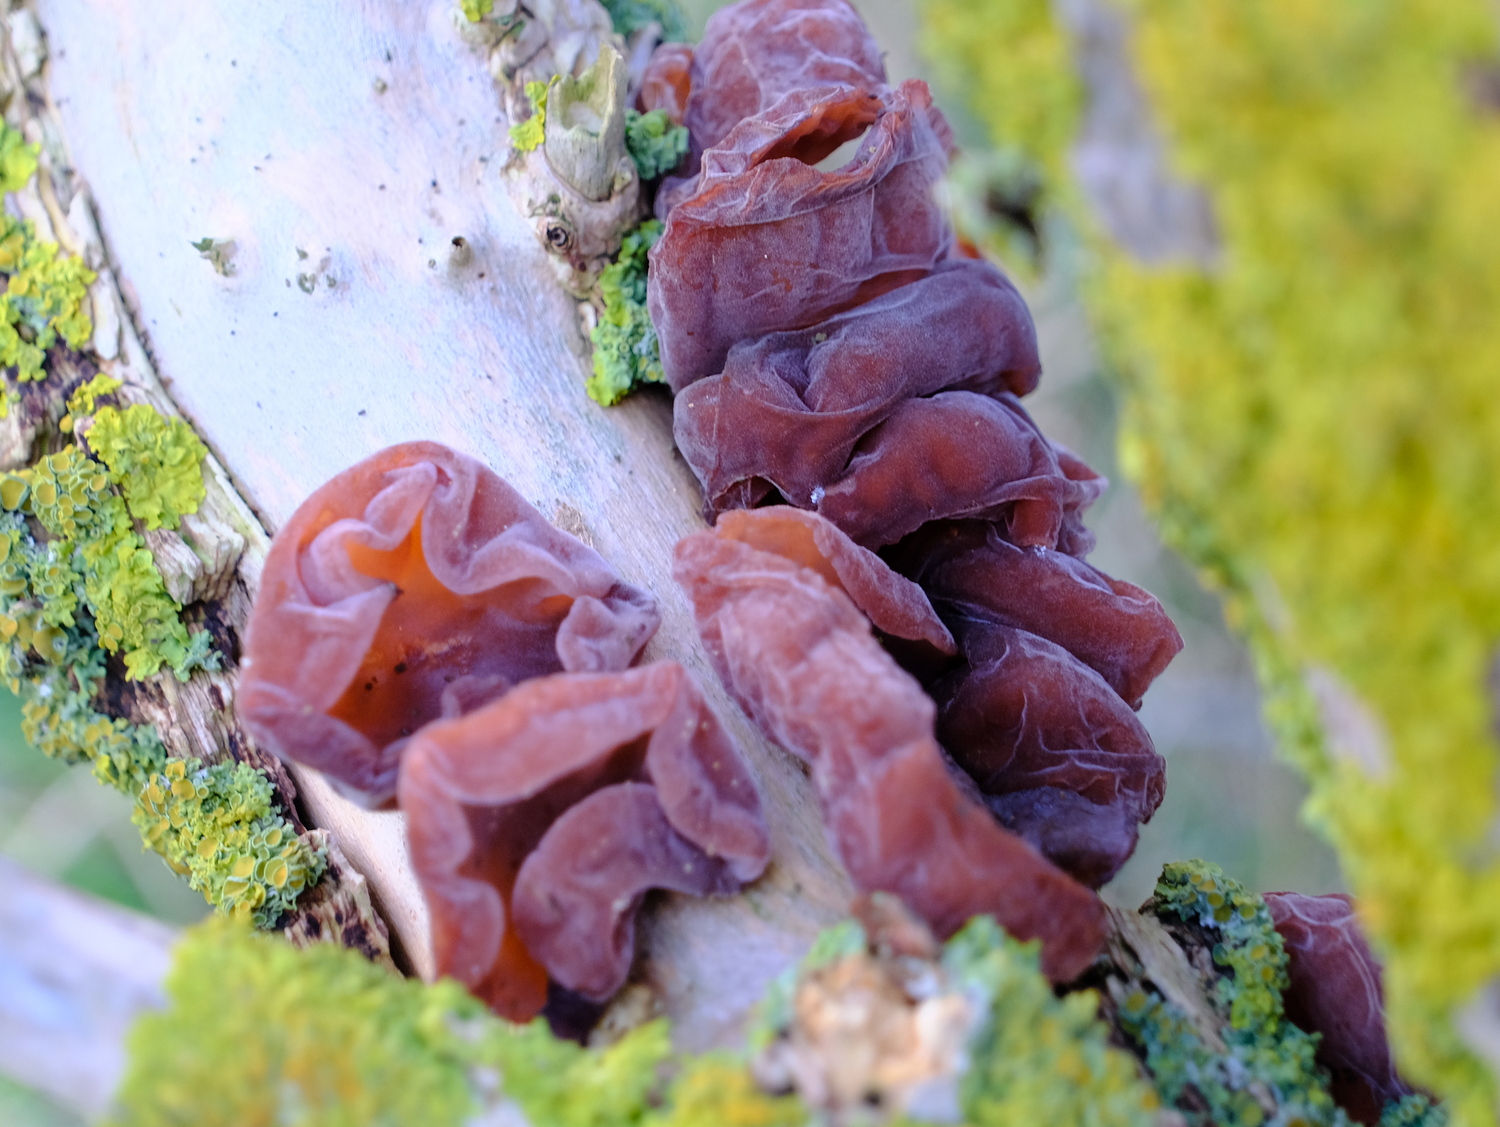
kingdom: Fungi
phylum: Basidiomycota
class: Agaricomycetes
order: Auriculariales
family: Auriculariaceae
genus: Auricularia
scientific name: Auricularia auricula-judae
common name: almindelig judasøre
